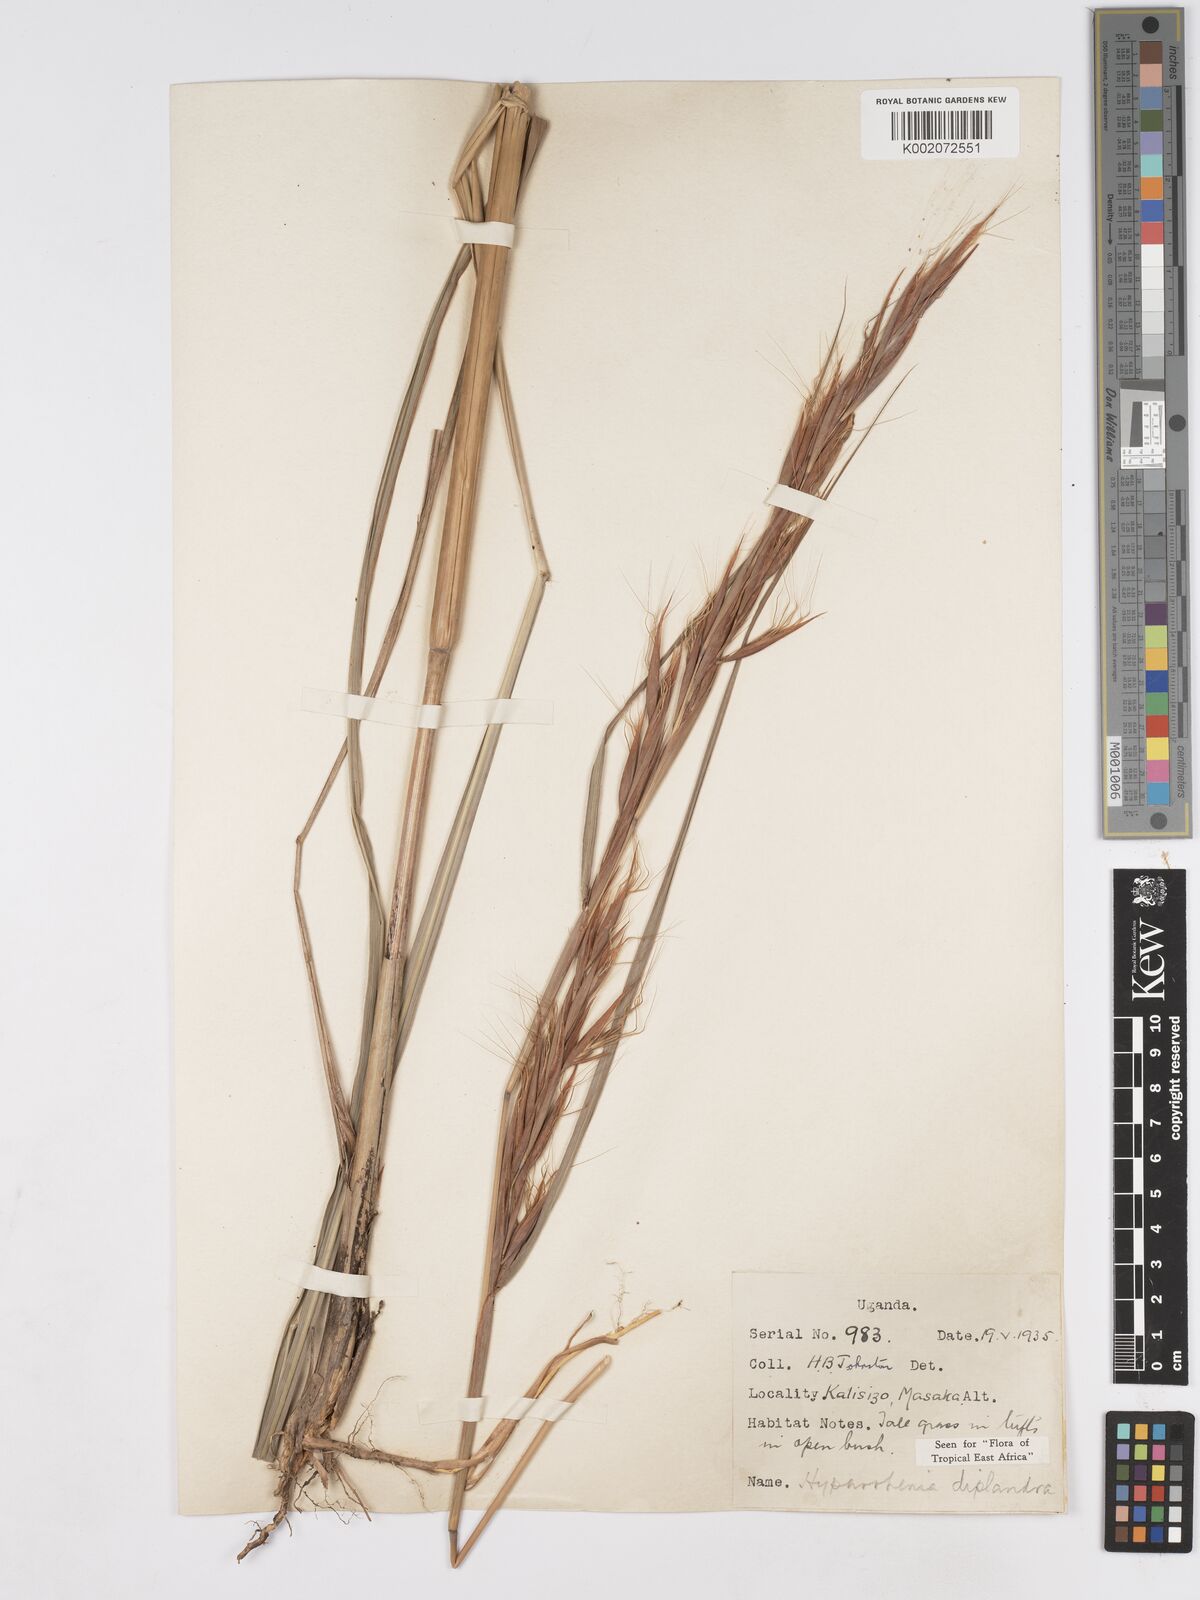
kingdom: Plantae
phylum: Tracheophyta
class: Liliopsida
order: Poales
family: Poaceae
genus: Hyparrhenia
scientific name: Hyparrhenia diplandra
